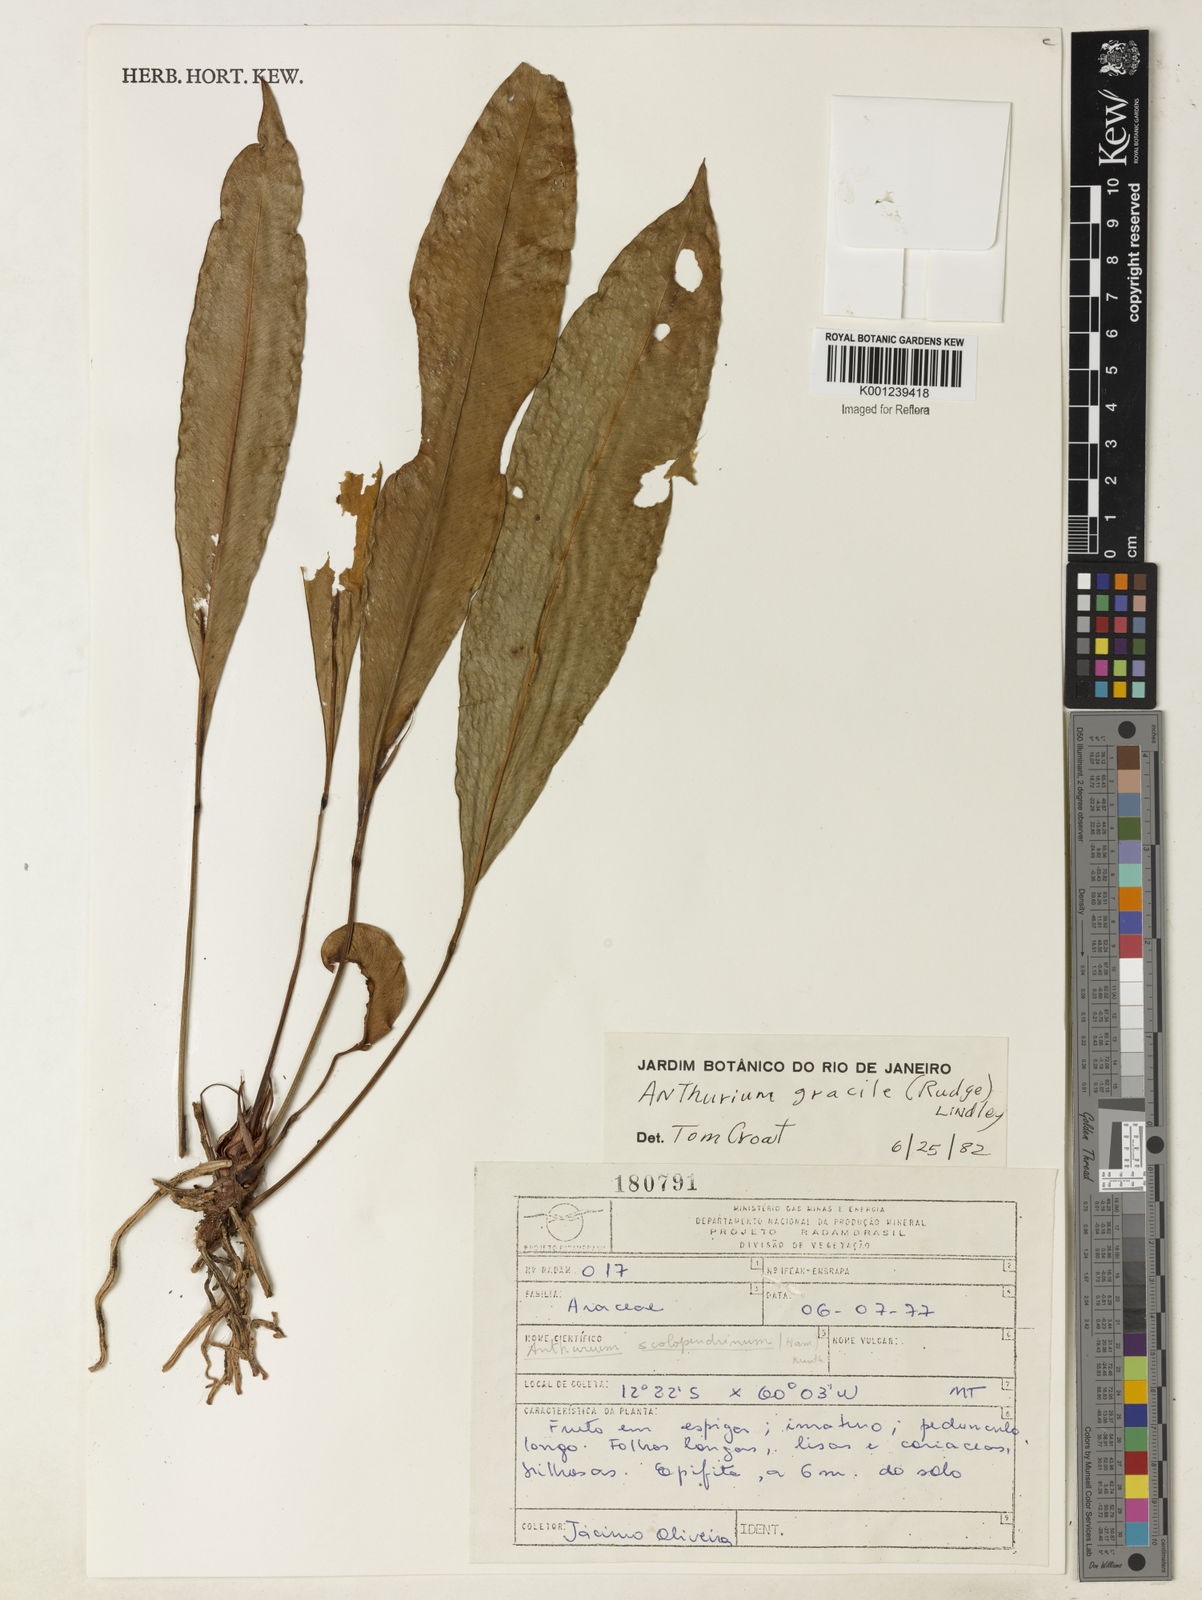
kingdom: Plantae
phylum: Tracheophyta
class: Liliopsida
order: Alismatales
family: Araceae
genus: Anthurium
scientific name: Anthurium gracile
